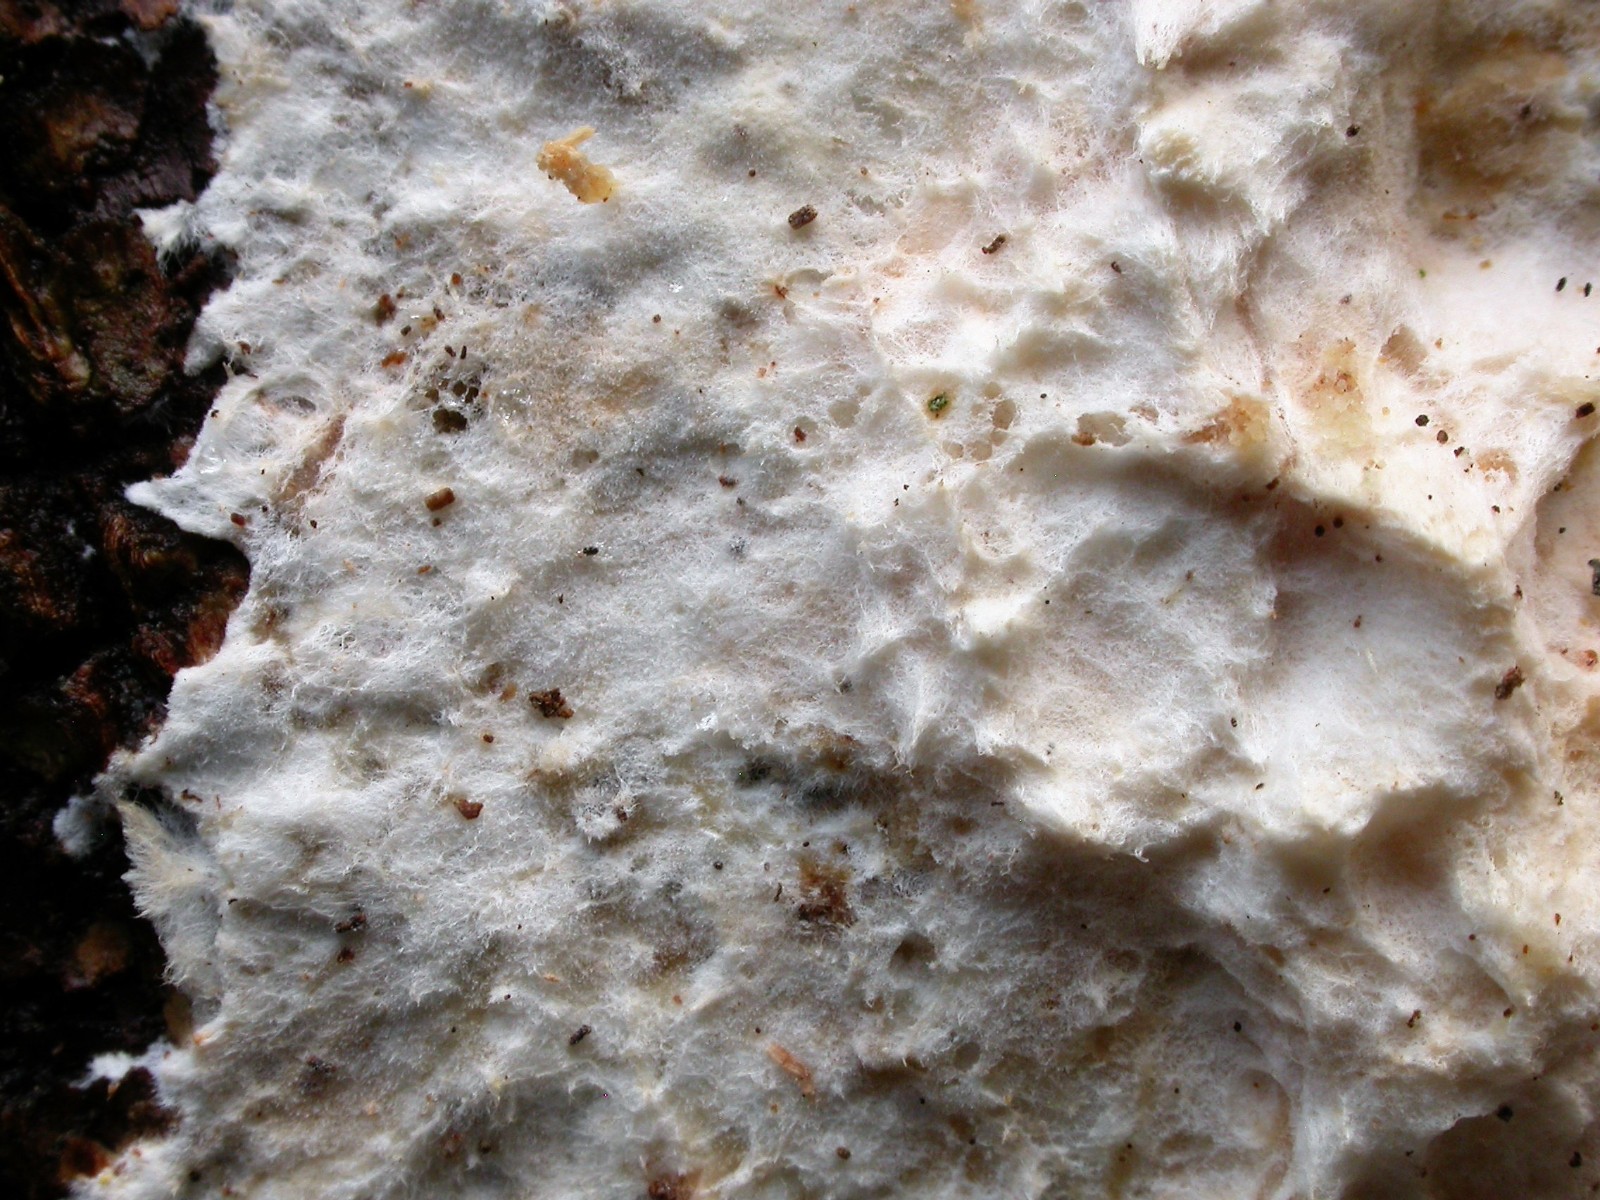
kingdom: Fungi
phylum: Basidiomycota
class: Agaricomycetes
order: Polyporales
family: Phanerochaetaceae
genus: Phanerochaete
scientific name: Phanerochaete velutina
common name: dunet randtråd
